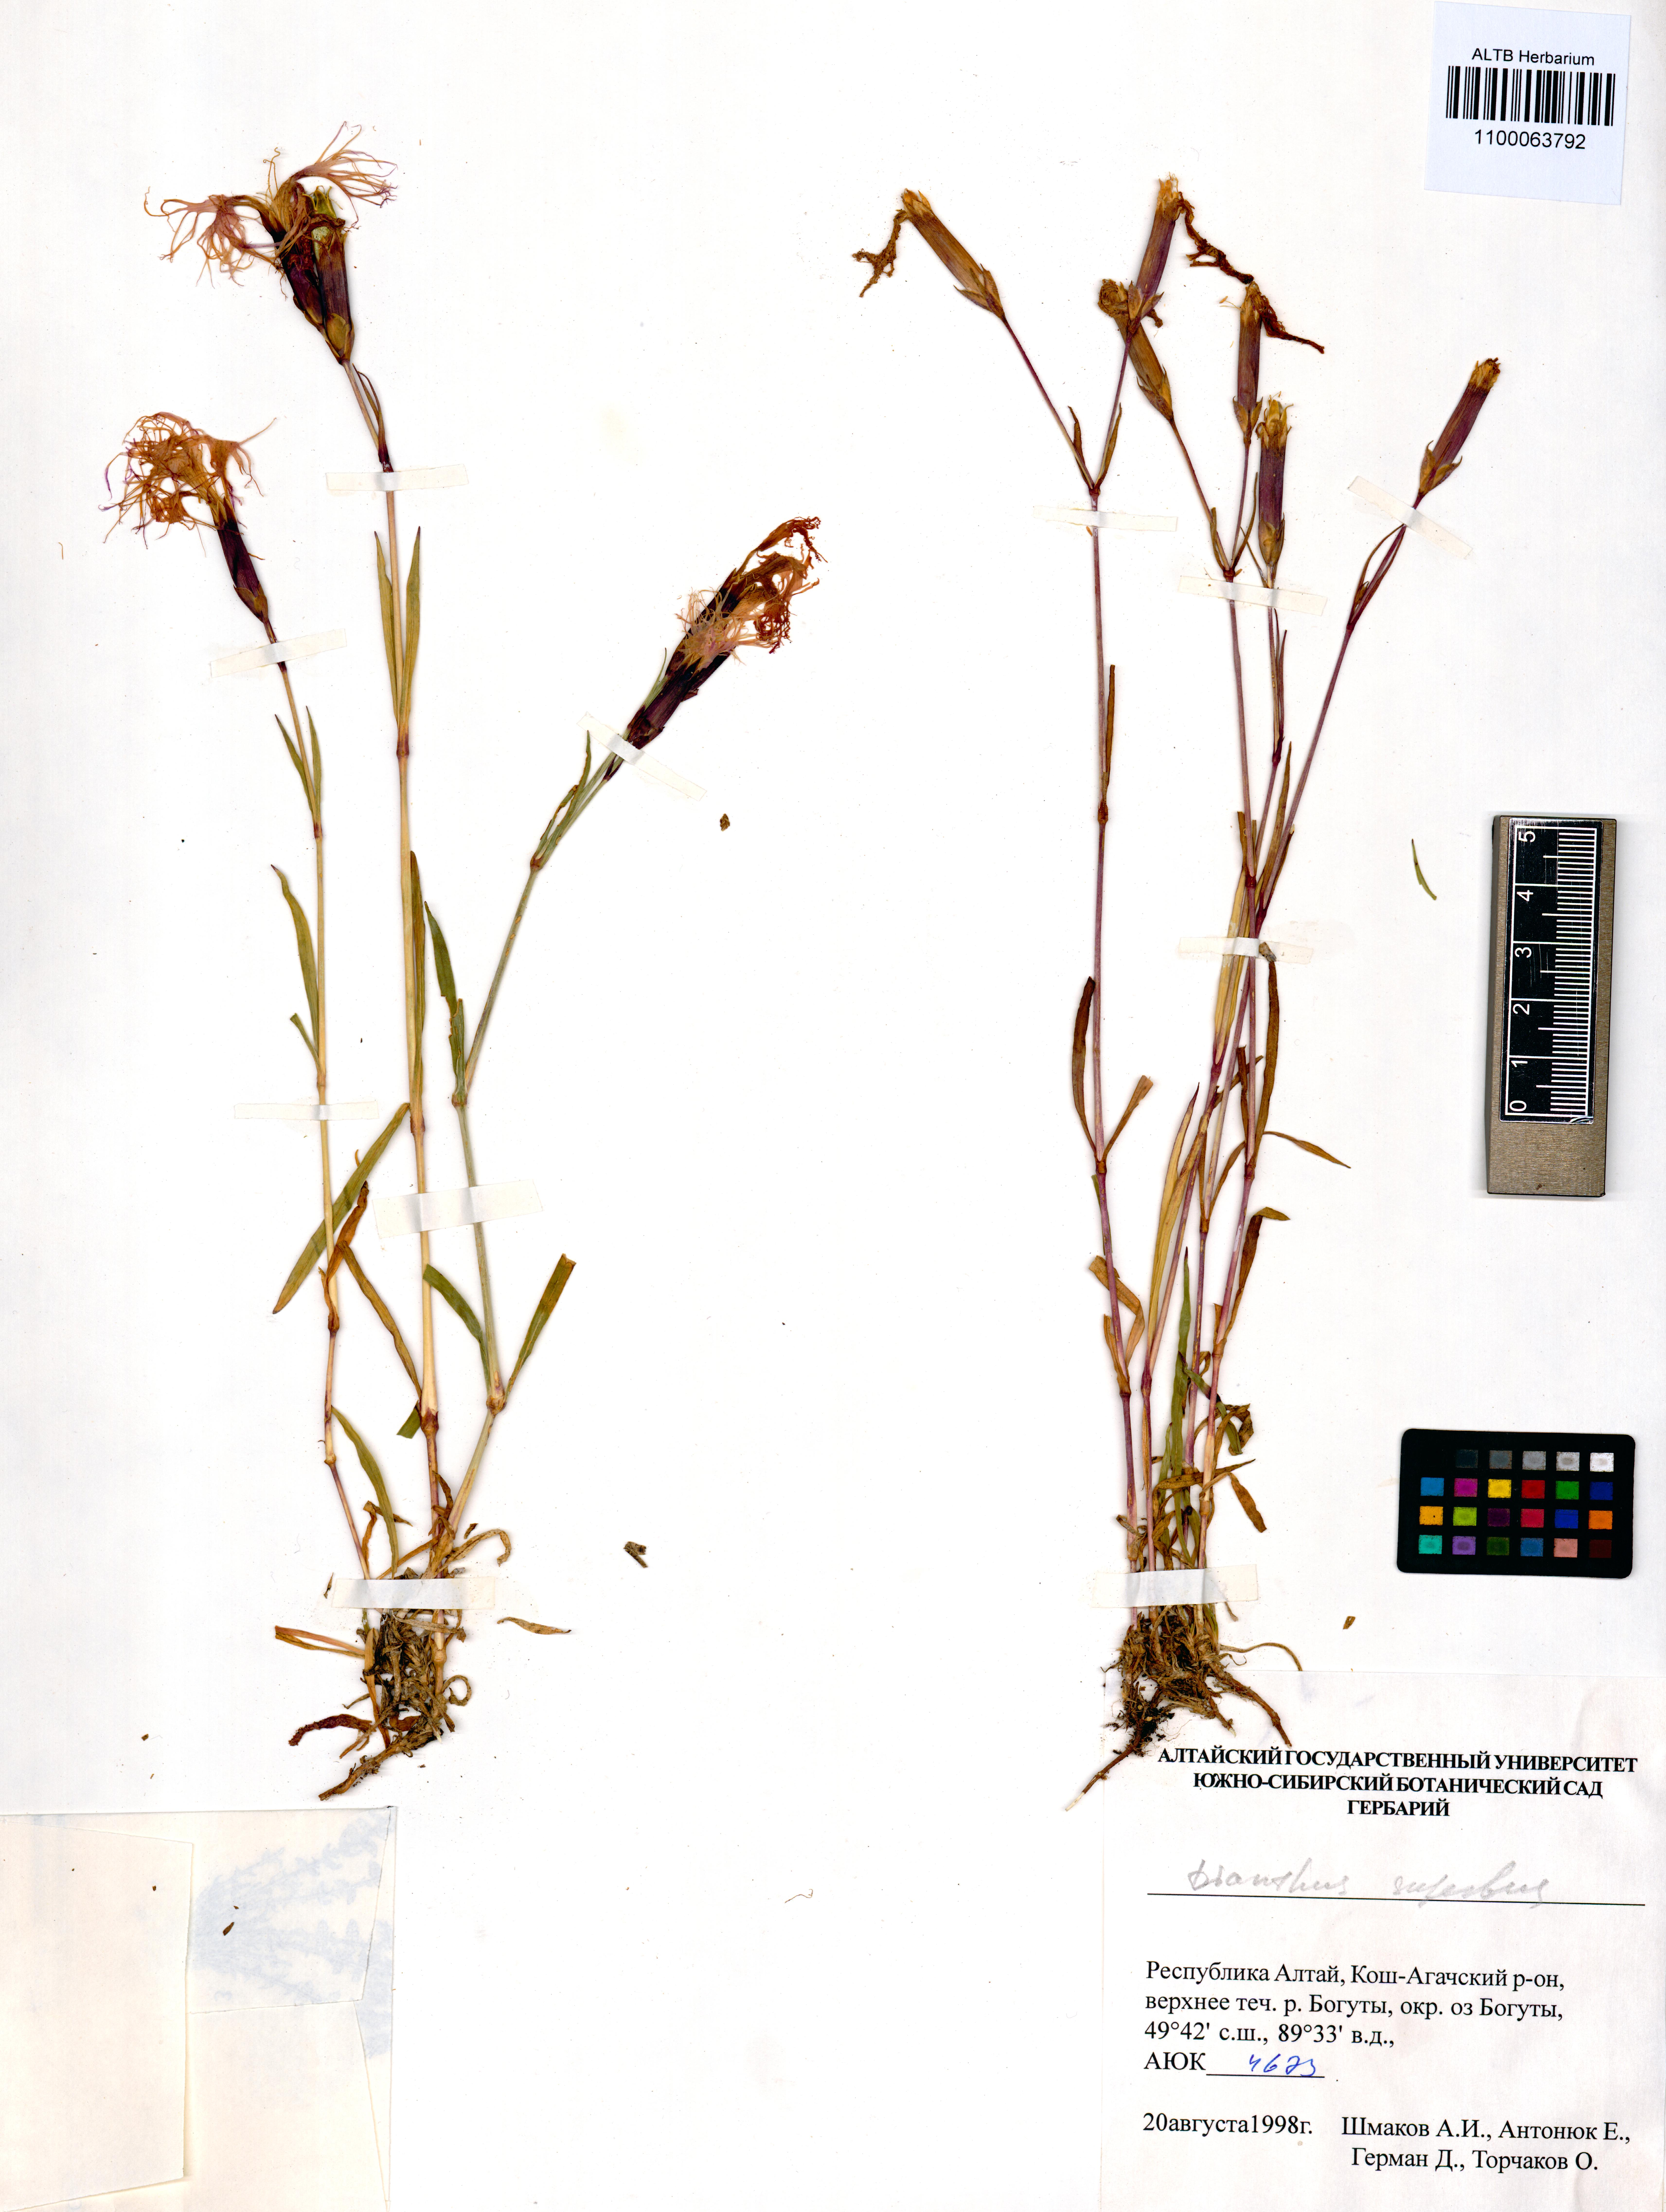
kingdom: Plantae
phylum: Tracheophyta
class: Magnoliopsida
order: Caryophyllales
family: Caryophyllaceae
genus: Dianthus
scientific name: Dianthus superbus
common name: Fringed pink
